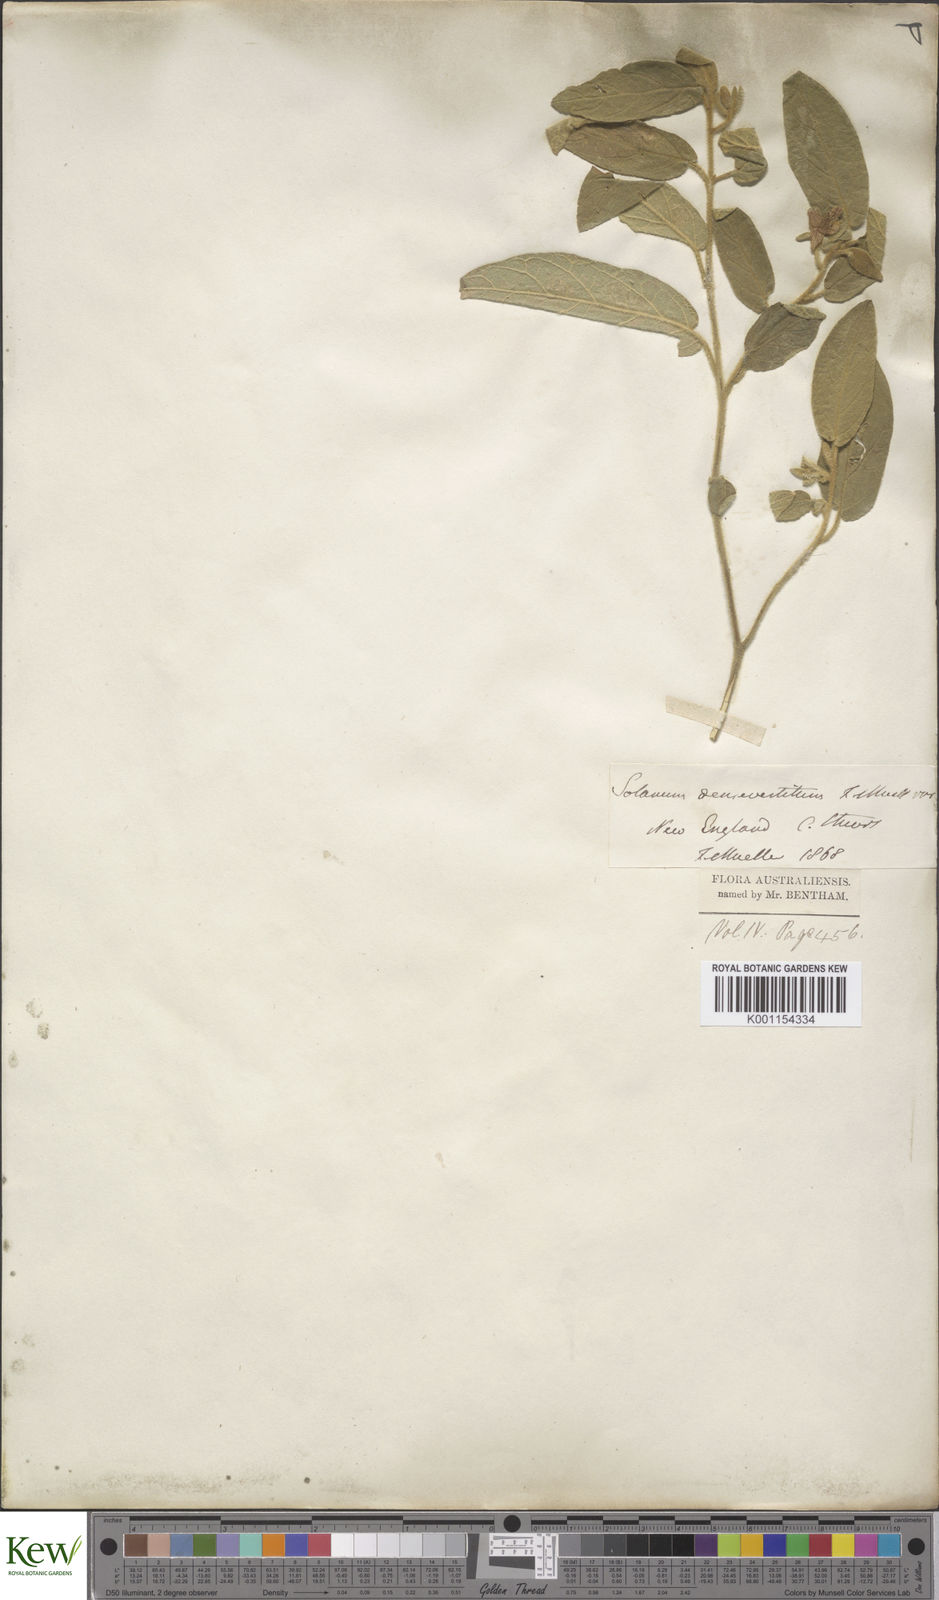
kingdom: Plantae
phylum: Tracheophyta
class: Magnoliopsida
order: Solanales
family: Solanaceae
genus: Solanum
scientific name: Solanum densevestitum
